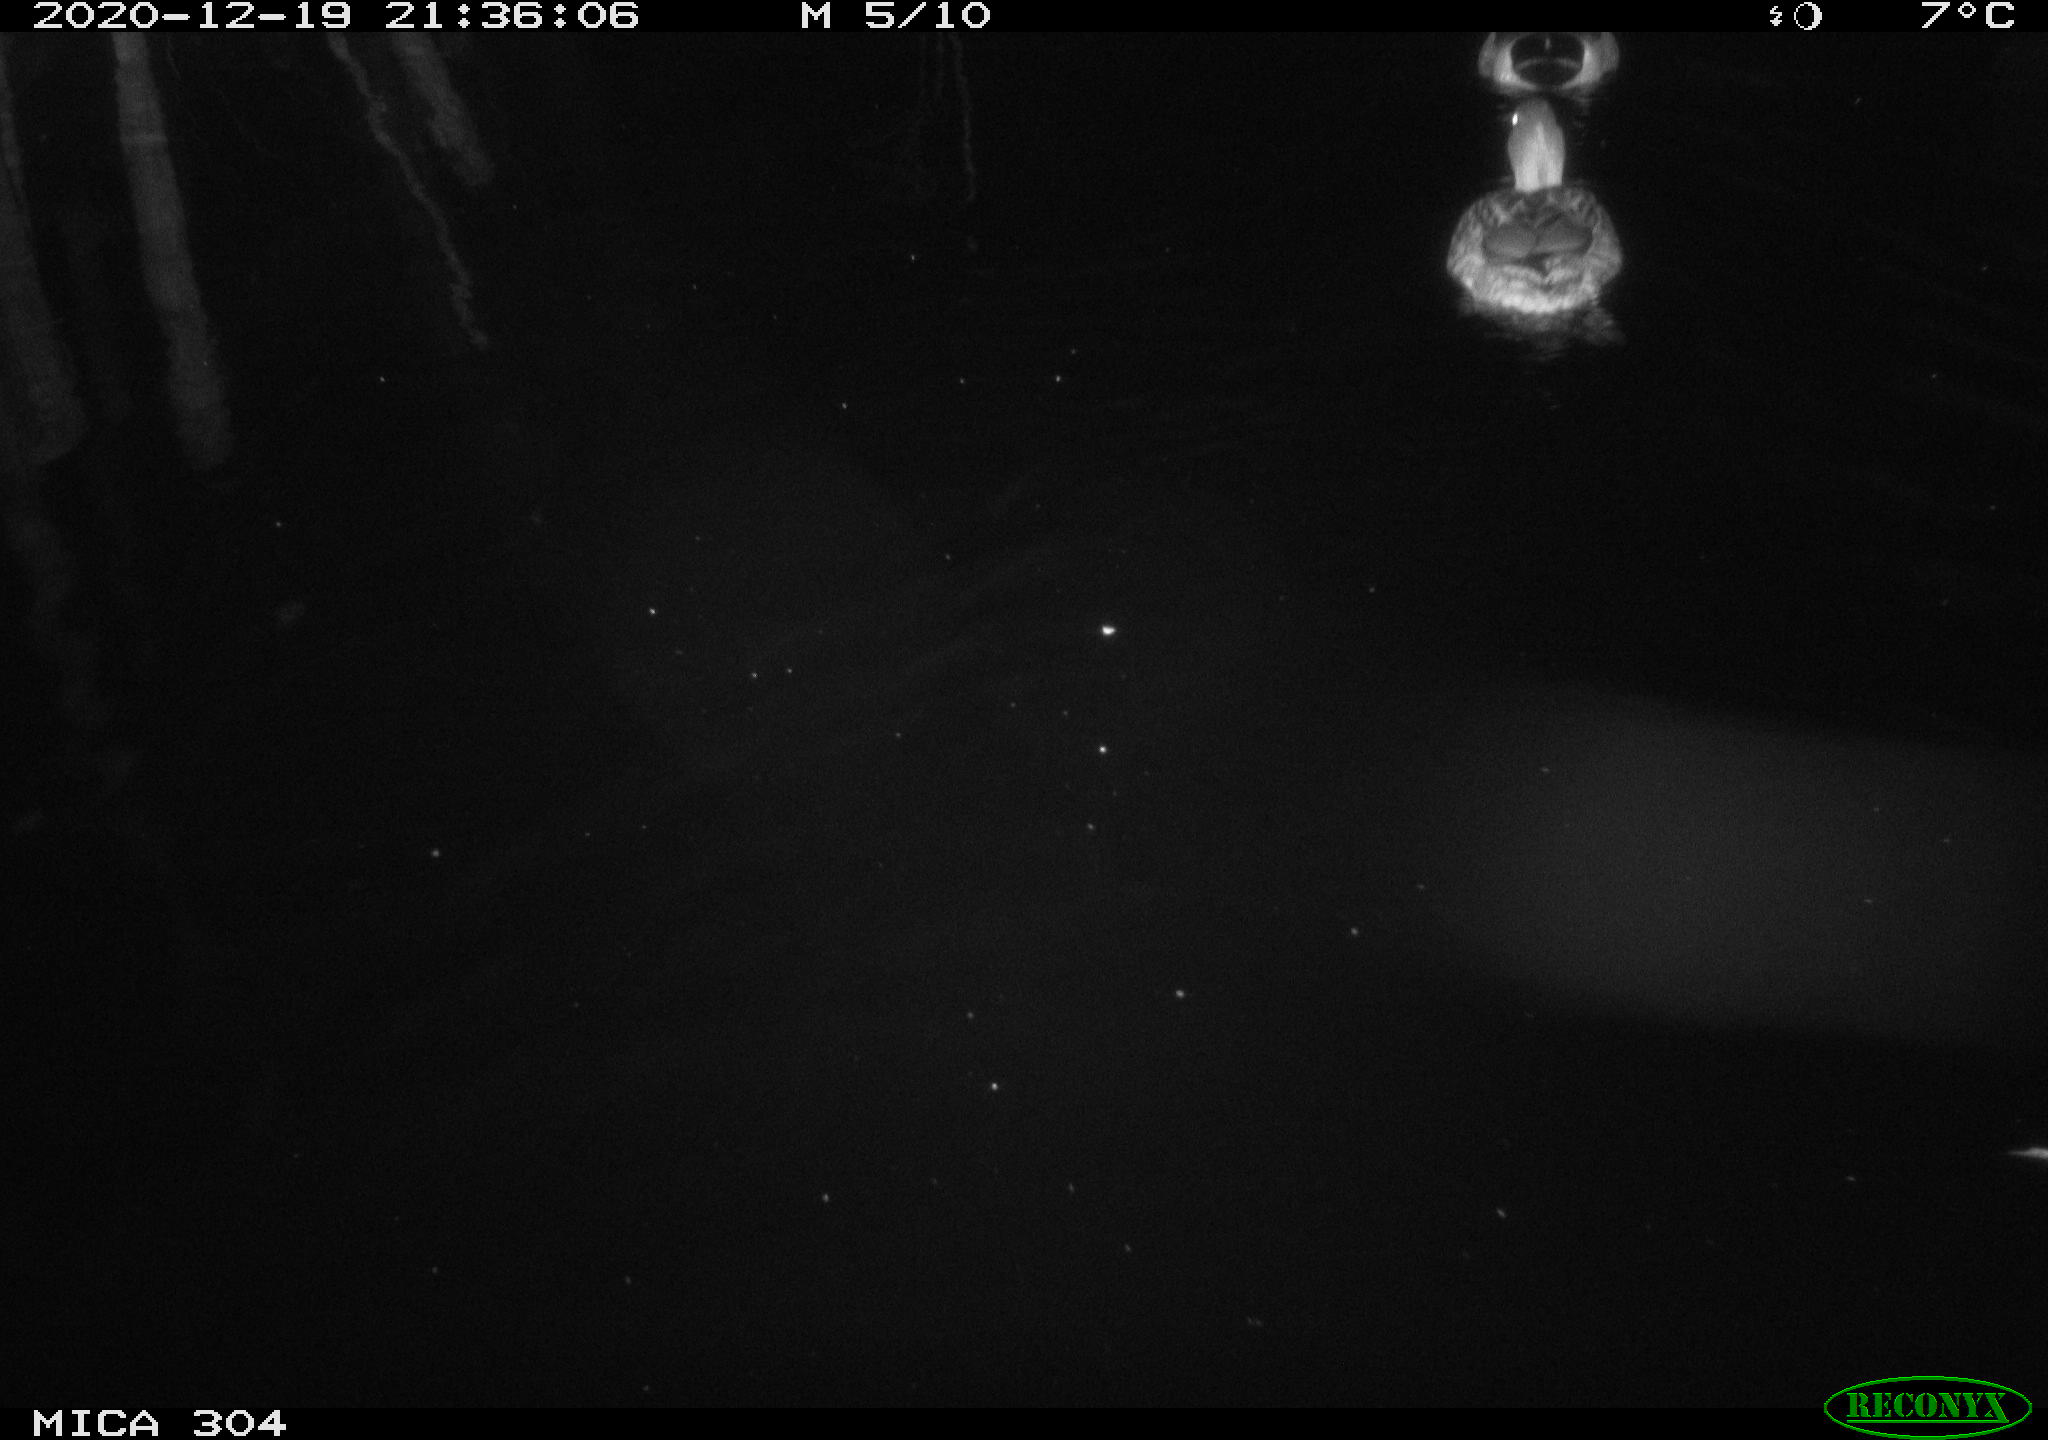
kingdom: Animalia
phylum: Chordata
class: Aves
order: Anseriformes
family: Anatidae
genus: Anas
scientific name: Anas platyrhynchos
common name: Mallard
